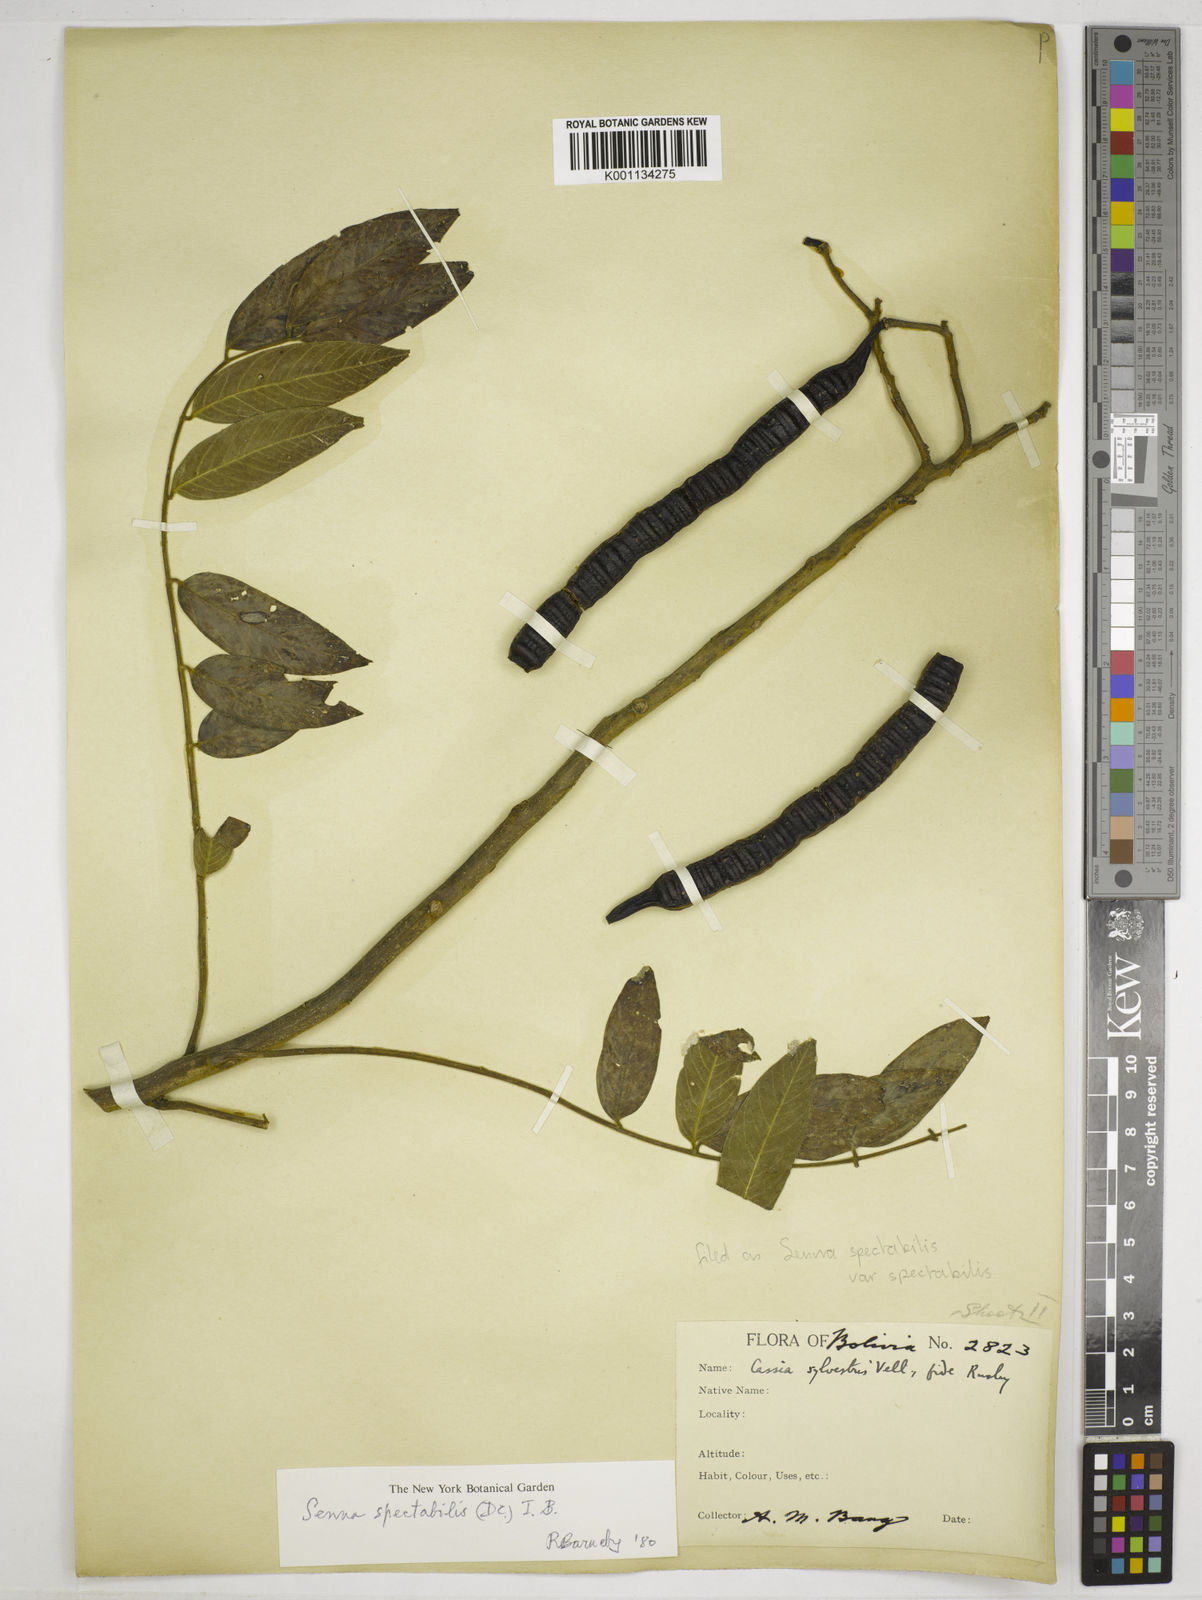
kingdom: Plantae
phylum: Tracheophyta
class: Magnoliopsida
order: Fabales
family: Fabaceae
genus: Senna
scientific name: Senna spectabilis
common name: Casia amarilla
